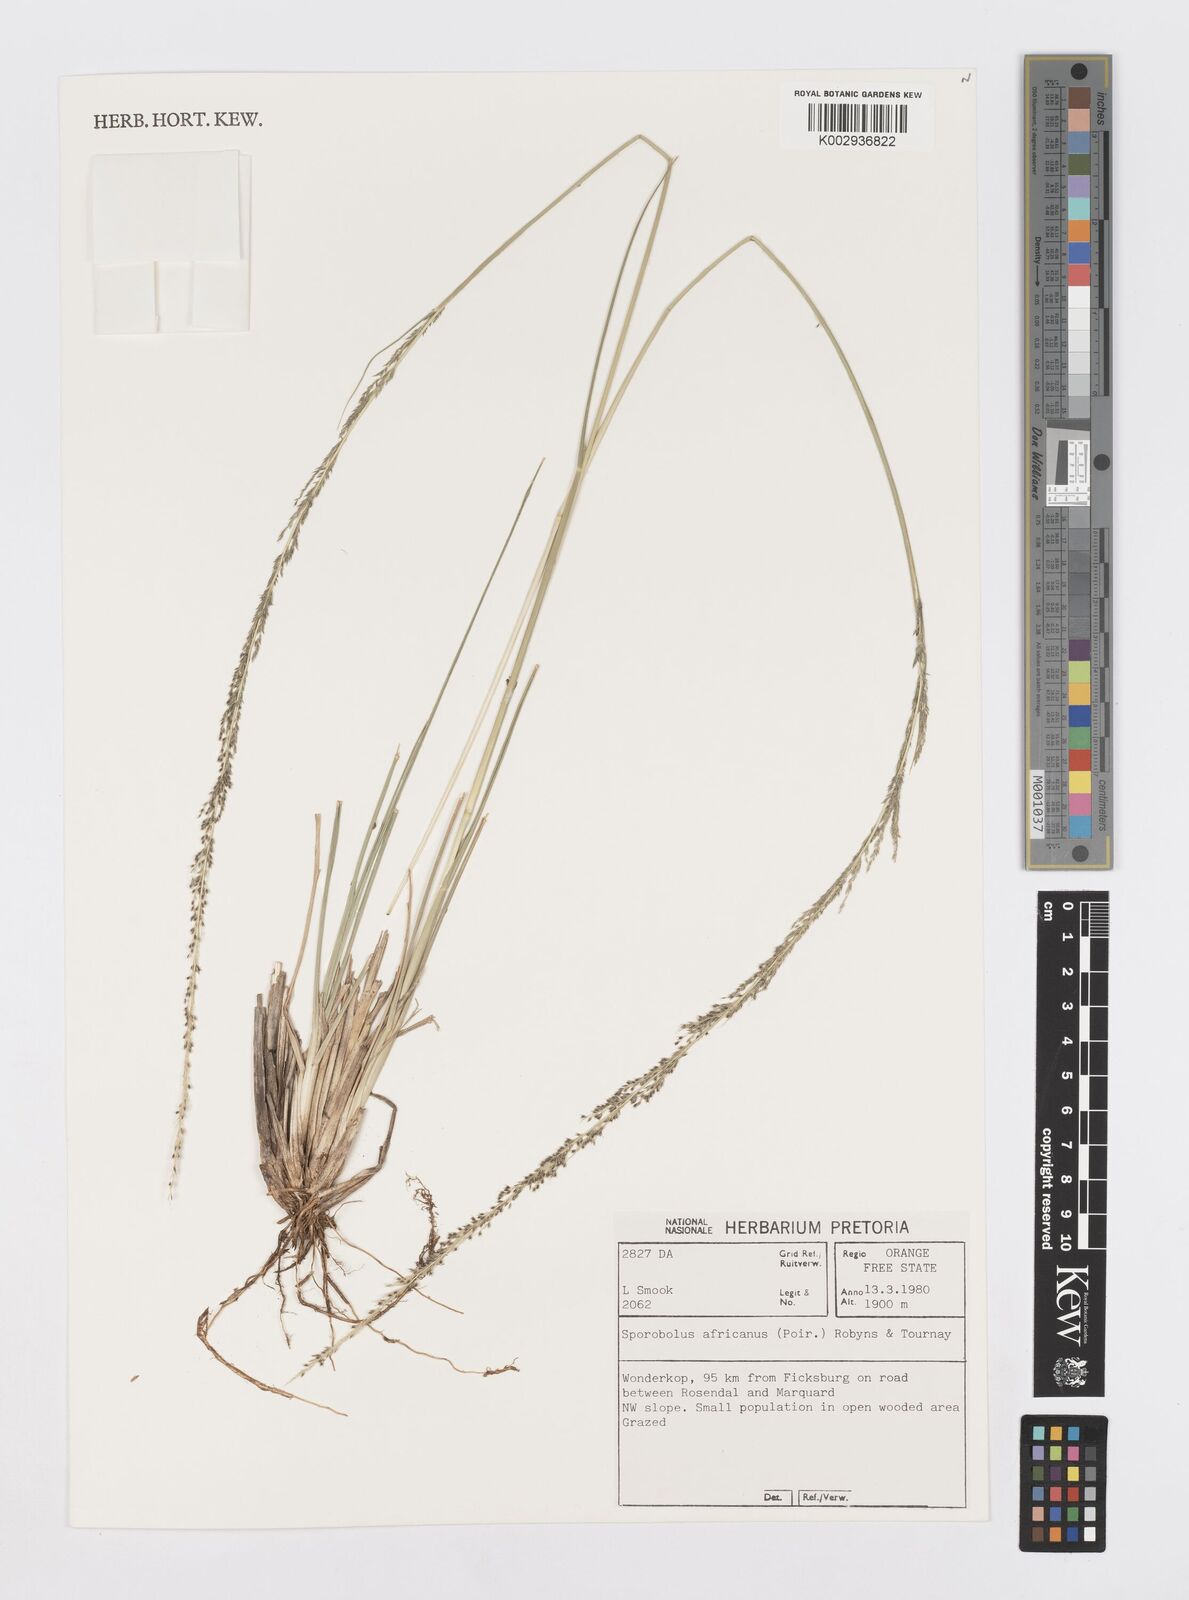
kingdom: Plantae
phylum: Tracheophyta
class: Liliopsida
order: Poales
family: Poaceae
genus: Sporobolus
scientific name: Sporobolus africanus
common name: African dropseed
